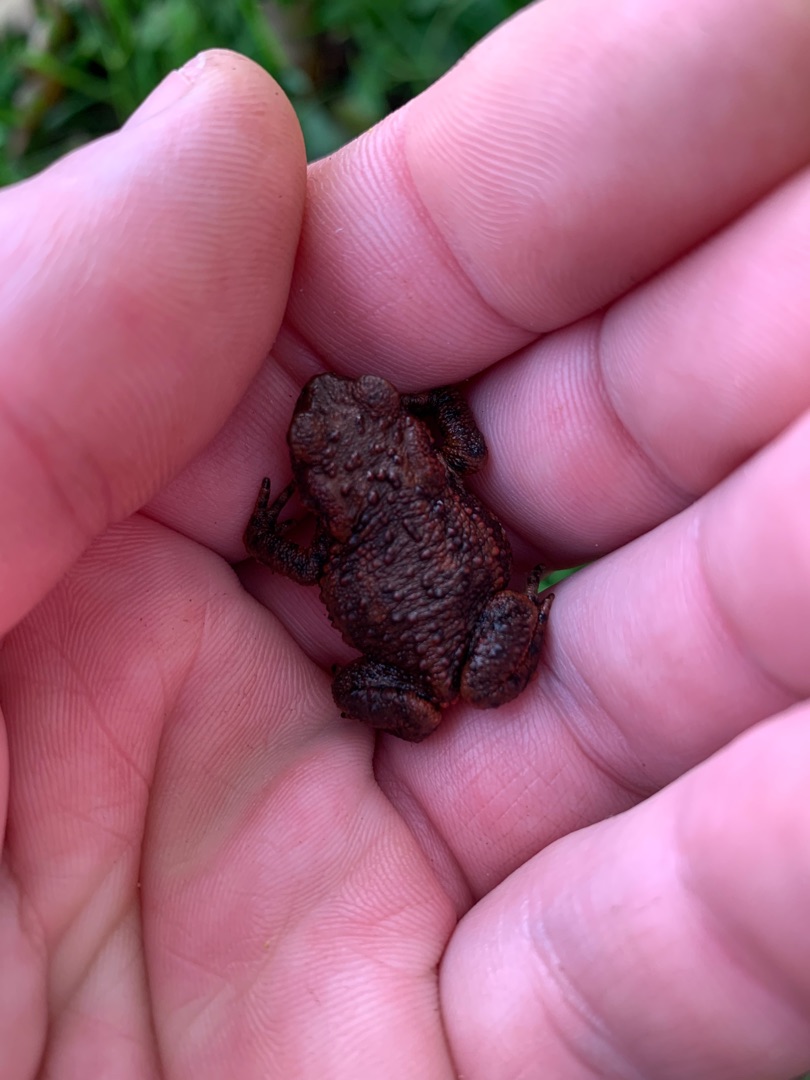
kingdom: Animalia
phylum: Chordata
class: Amphibia
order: Anura
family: Bufonidae
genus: Bufo
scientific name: Bufo bufo
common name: Skrubtudse
